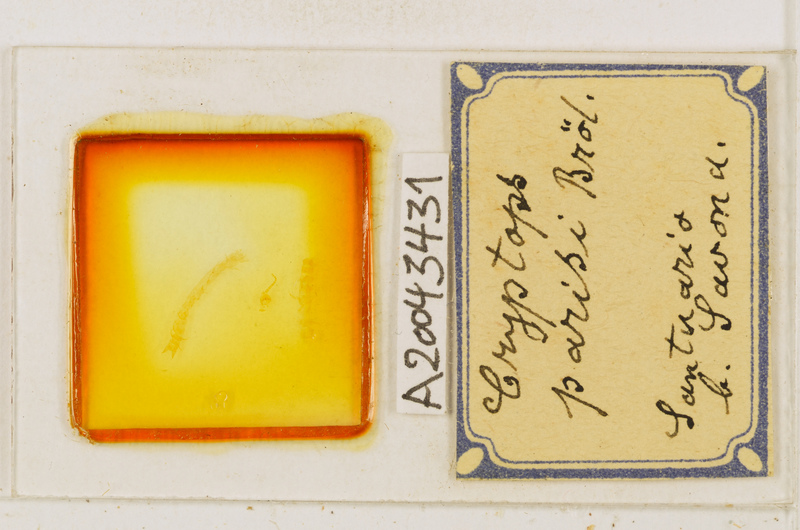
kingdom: Animalia
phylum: Arthropoda
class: Chilopoda
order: Scolopendromorpha
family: Cryptopidae
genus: Cryptops
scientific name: Cryptops parisi
